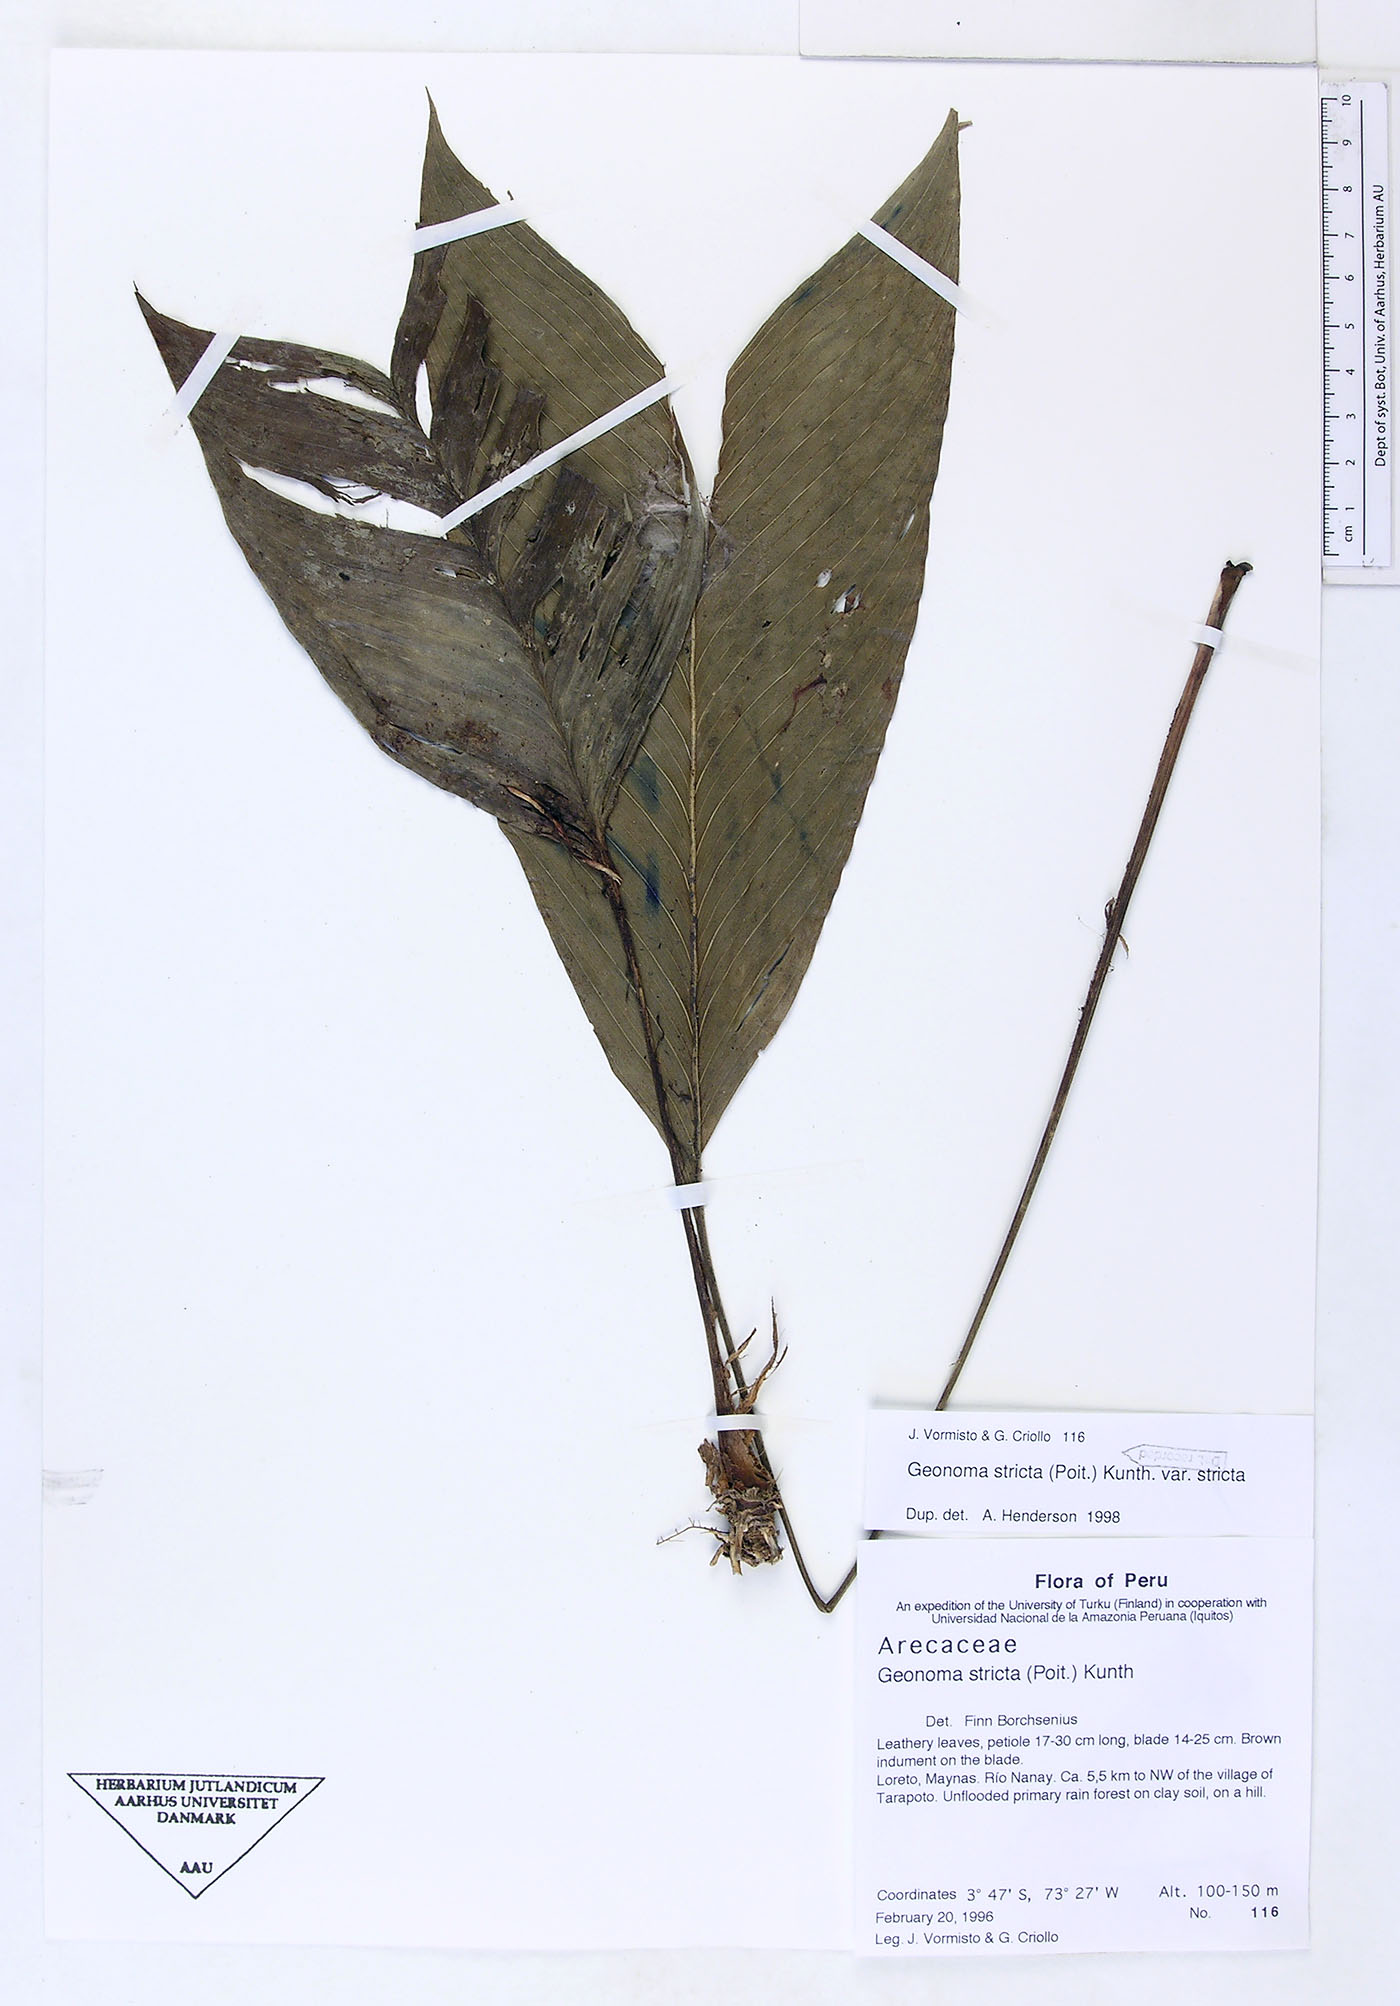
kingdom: Plantae
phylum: Tracheophyta
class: Liliopsida
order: Arecales
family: Arecaceae
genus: Geonoma
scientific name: Geonoma stricta
